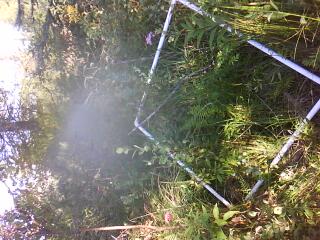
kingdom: Plantae
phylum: Tracheophyta
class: Liliopsida
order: Poales
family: Poaceae
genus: Muhlenbergia
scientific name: Muhlenbergia glomerata
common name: Bog muhly
